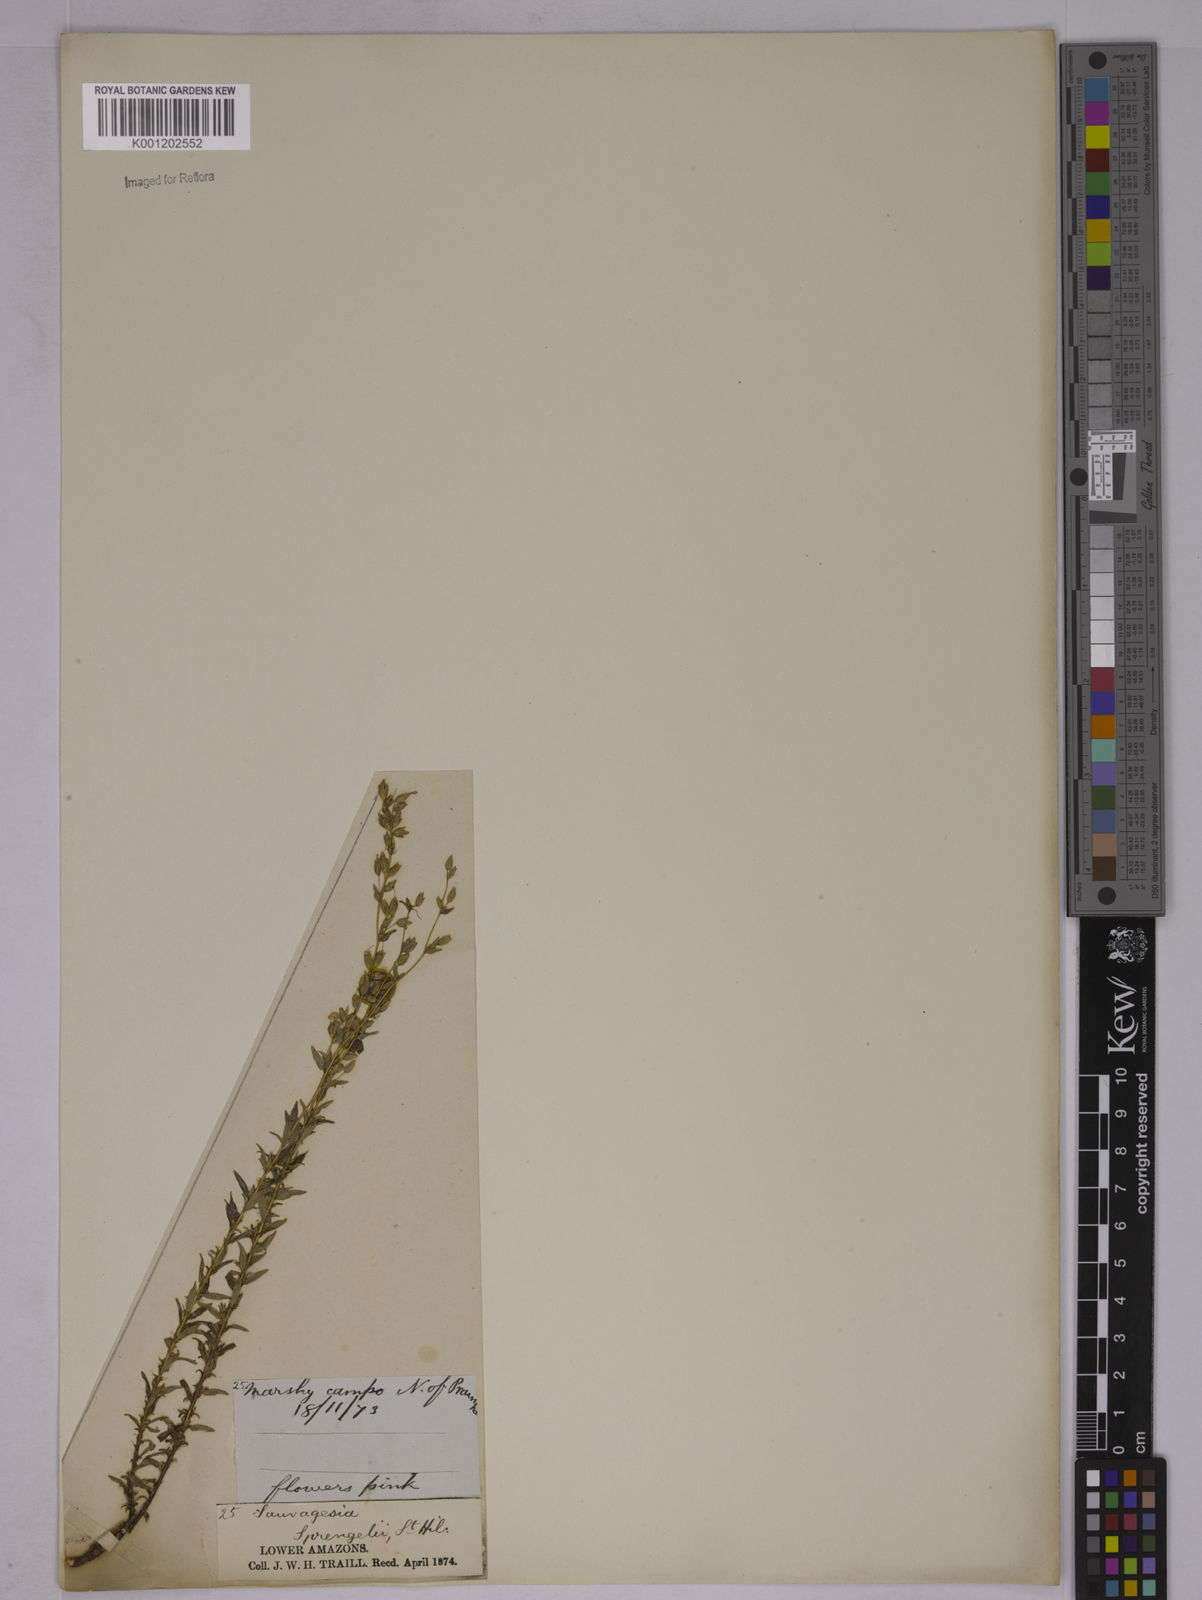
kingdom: Plantae
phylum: Tracheophyta
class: Magnoliopsida
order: Malpighiales
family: Ochnaceae
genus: Sauvagesia
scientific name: Sauvagesia sprengelii
